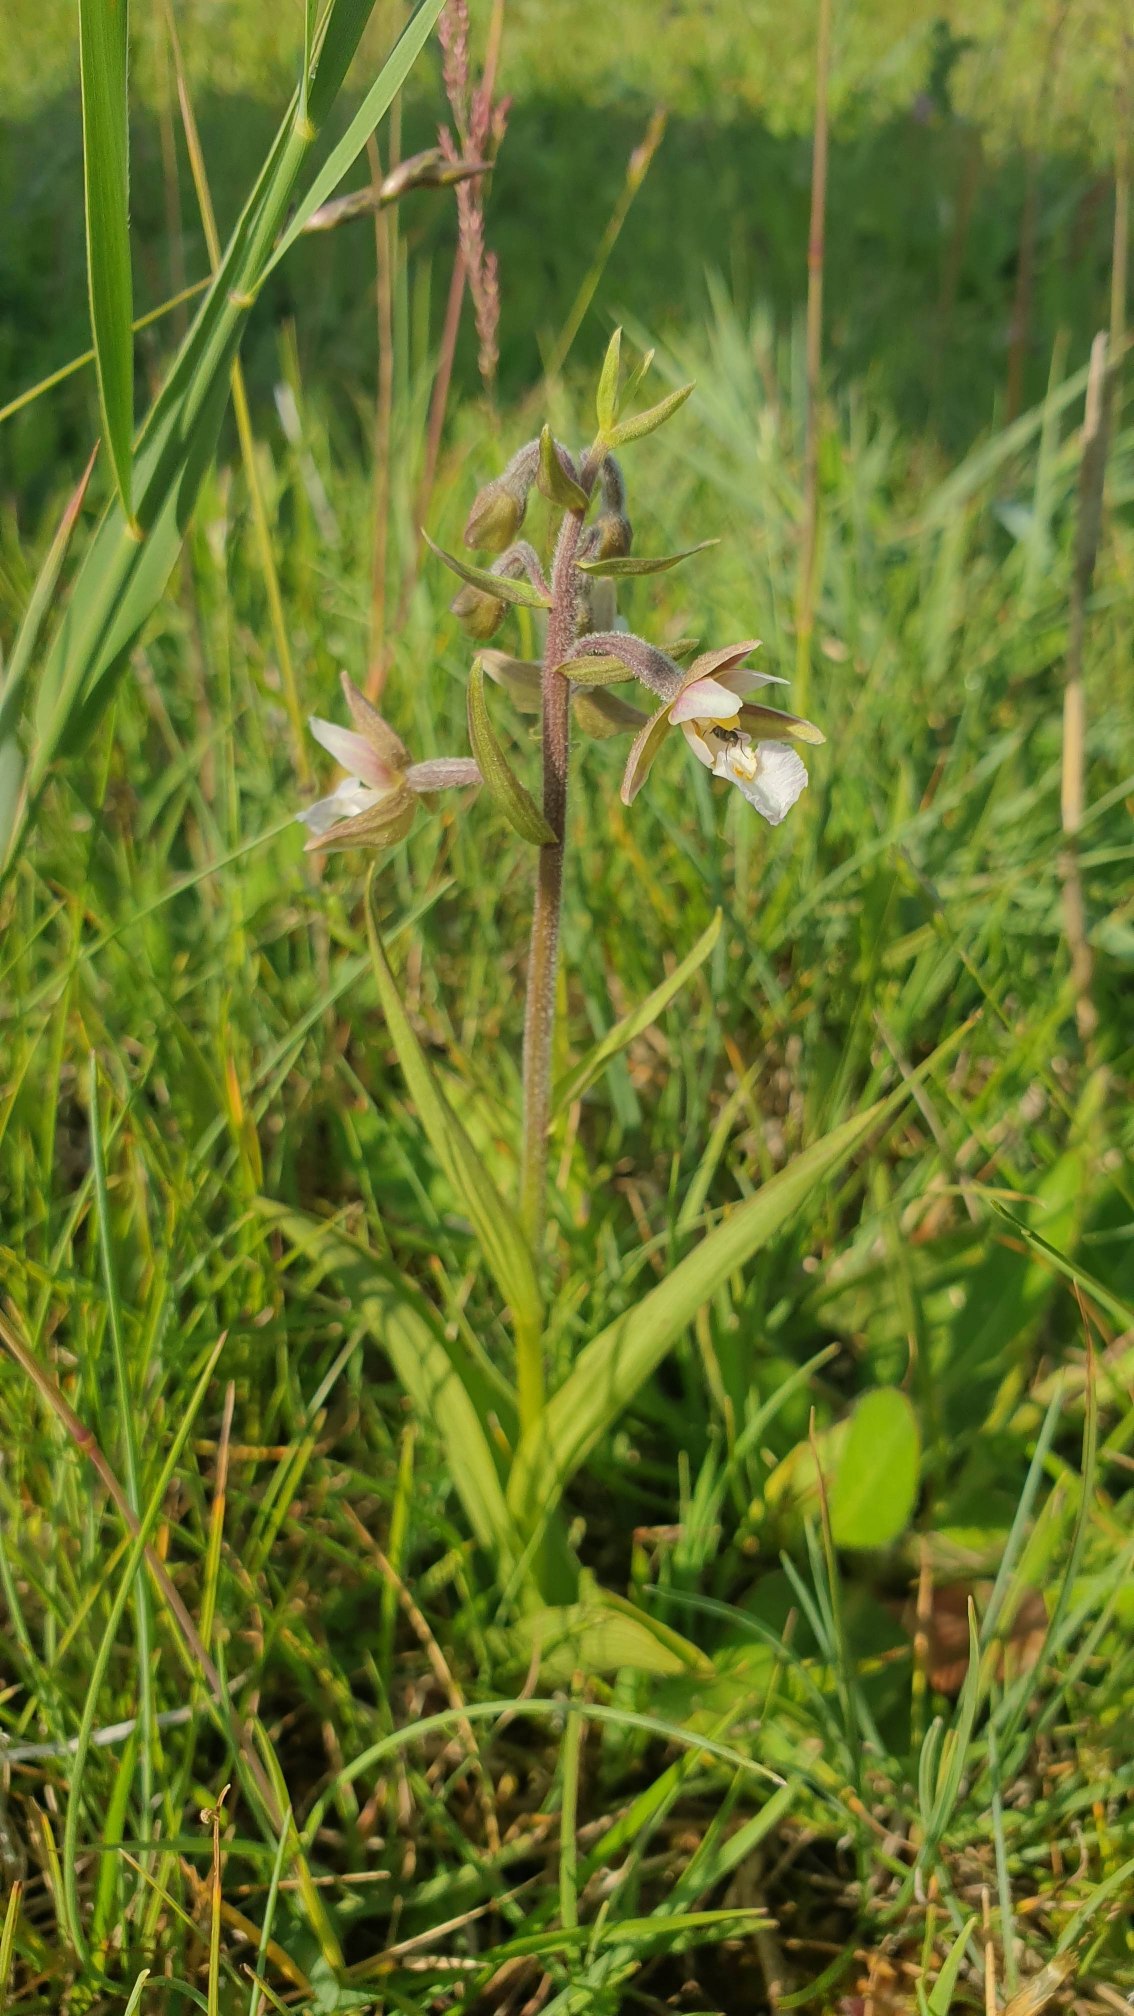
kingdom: Plantae
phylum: Tracheophyta
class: Liliopsida
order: Asparagales
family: Orchidaceae
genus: Epipactis
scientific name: Epipactis palustris
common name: Sump-hullæbe
